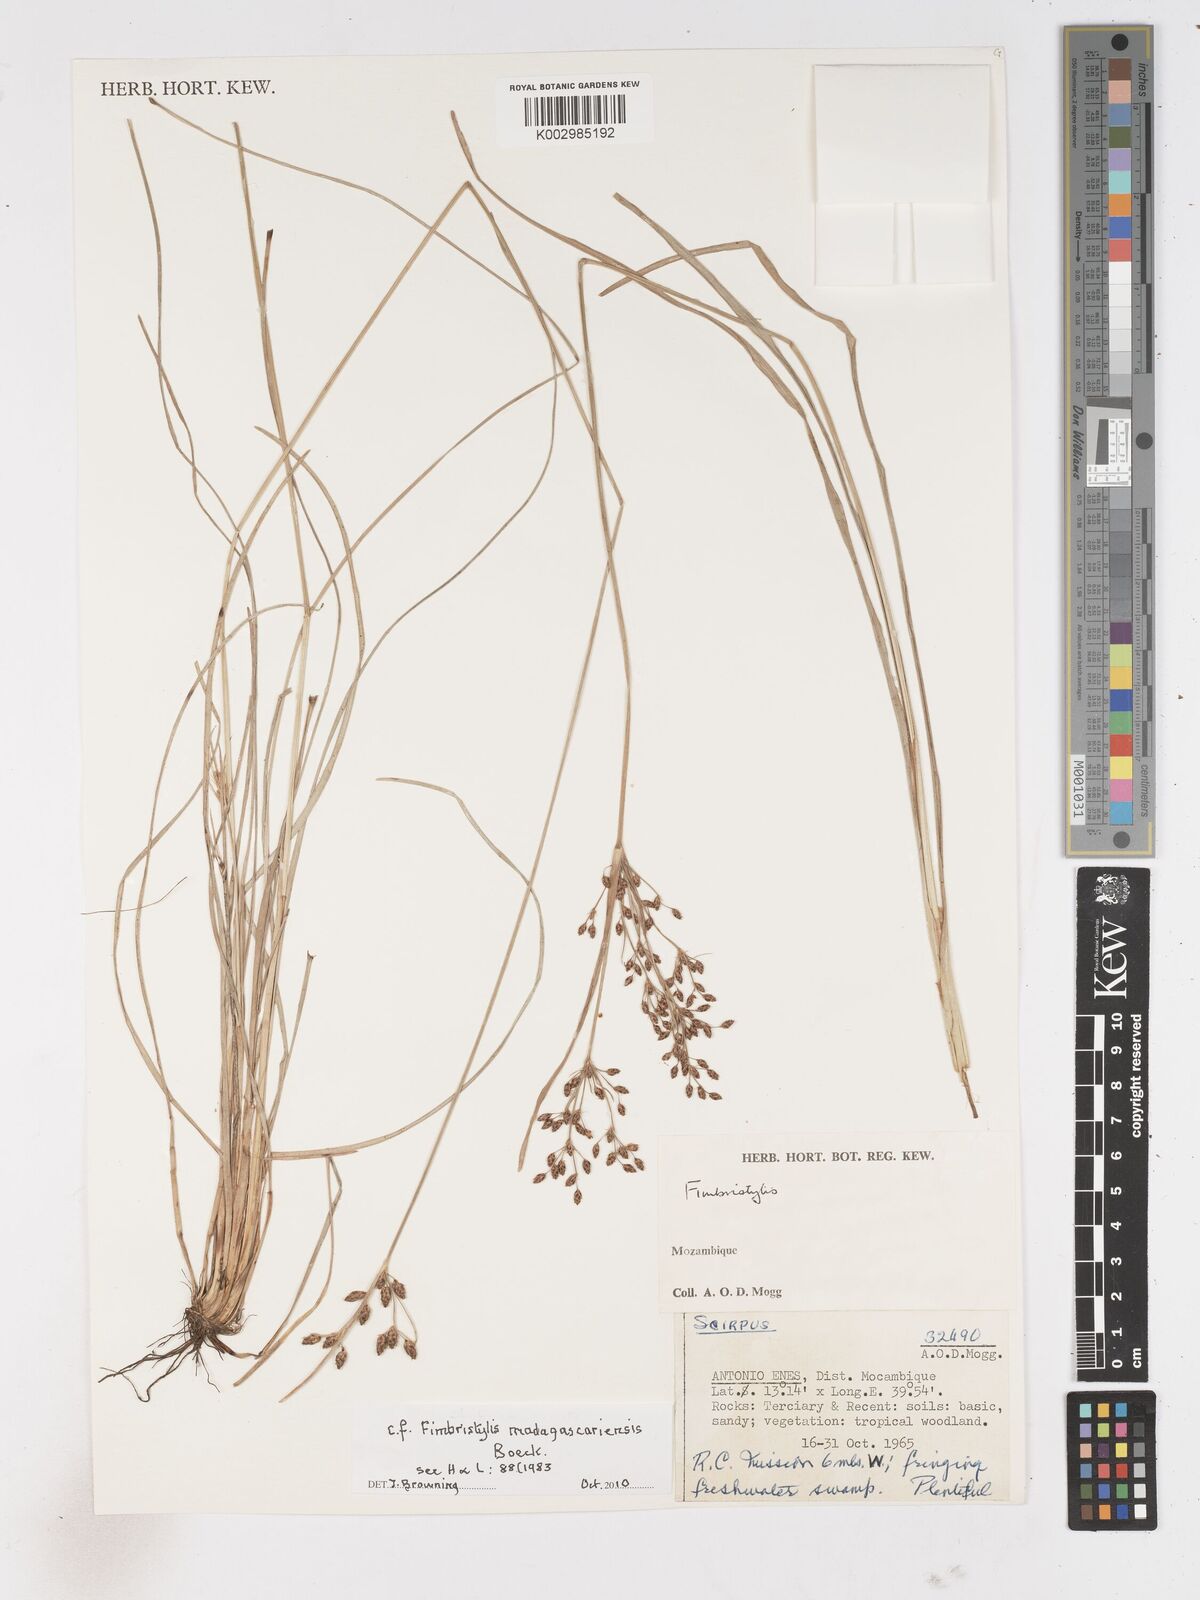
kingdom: Plantae
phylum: Tracheophyta
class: Liliopsida
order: Poales
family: Cyperaceae
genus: Fimbristylis
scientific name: Fimbristylis madagascariensis
